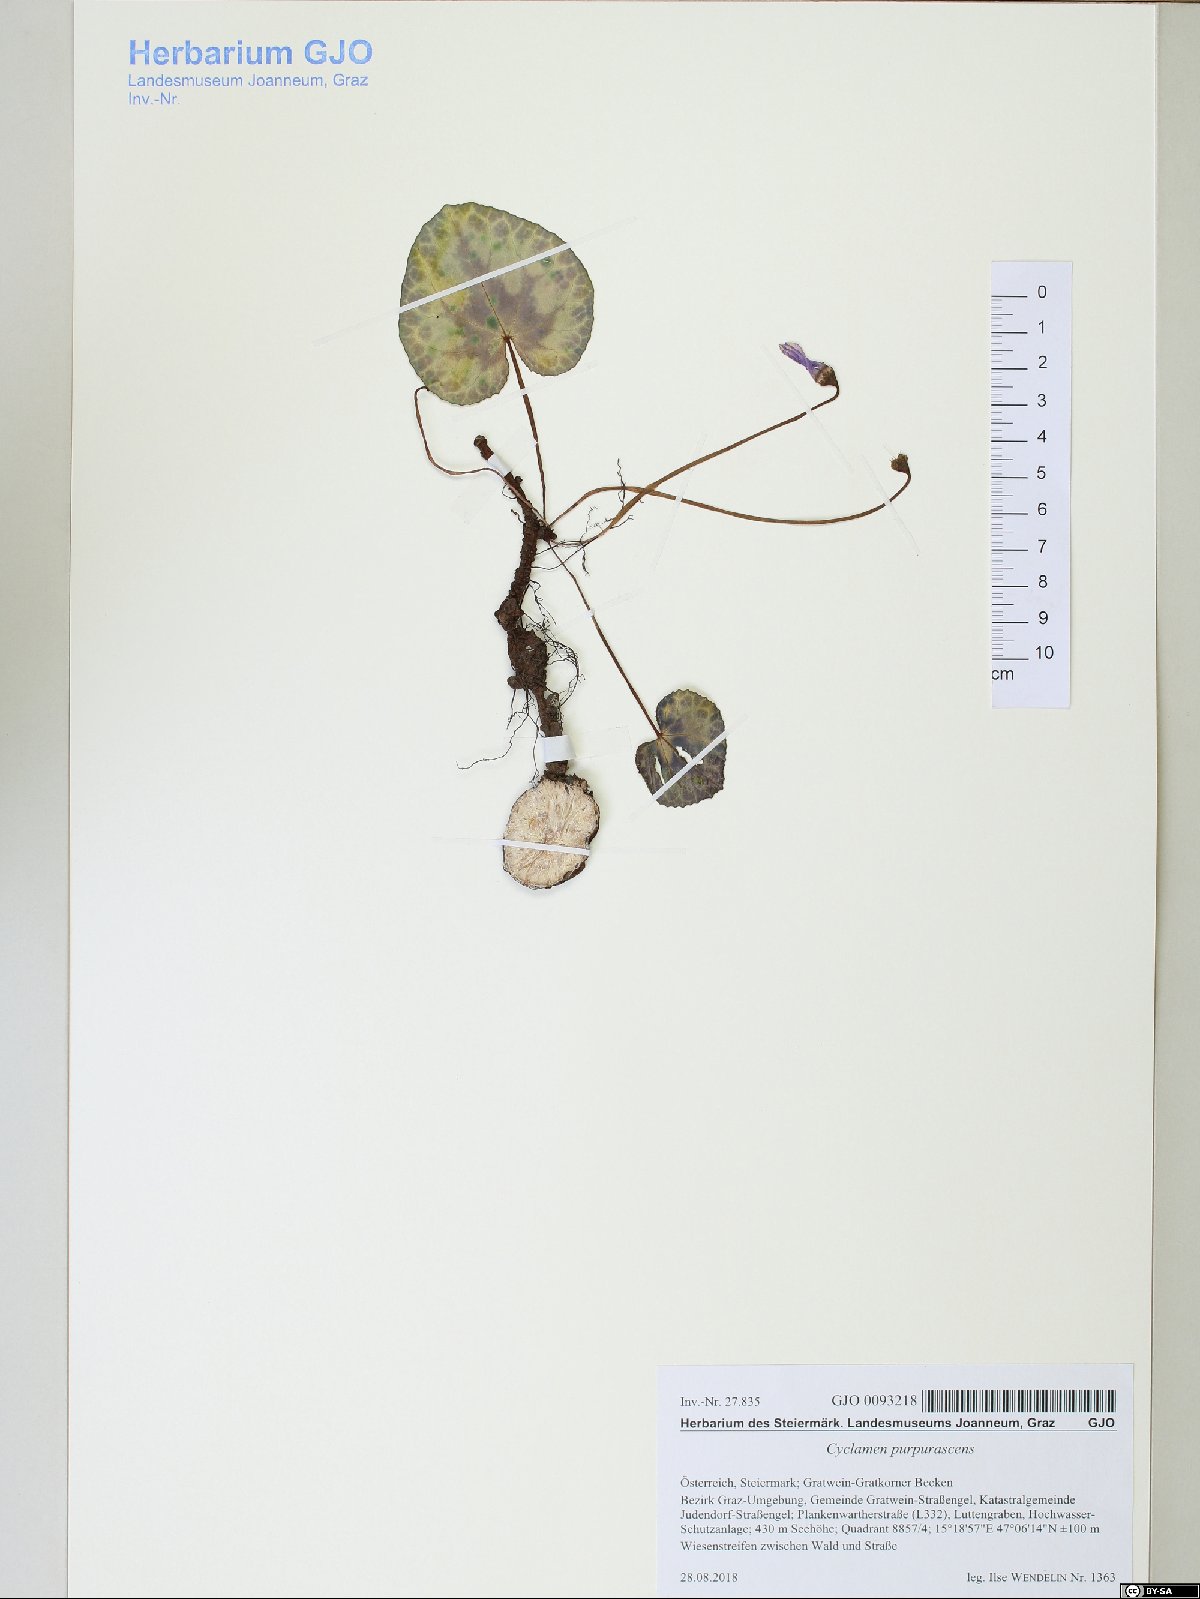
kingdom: Plantae
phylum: Tracheophyta
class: Magnoliopsida
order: Ericales
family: Primulaceae
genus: Cyclamen
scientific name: Cyclamen purpurascens
